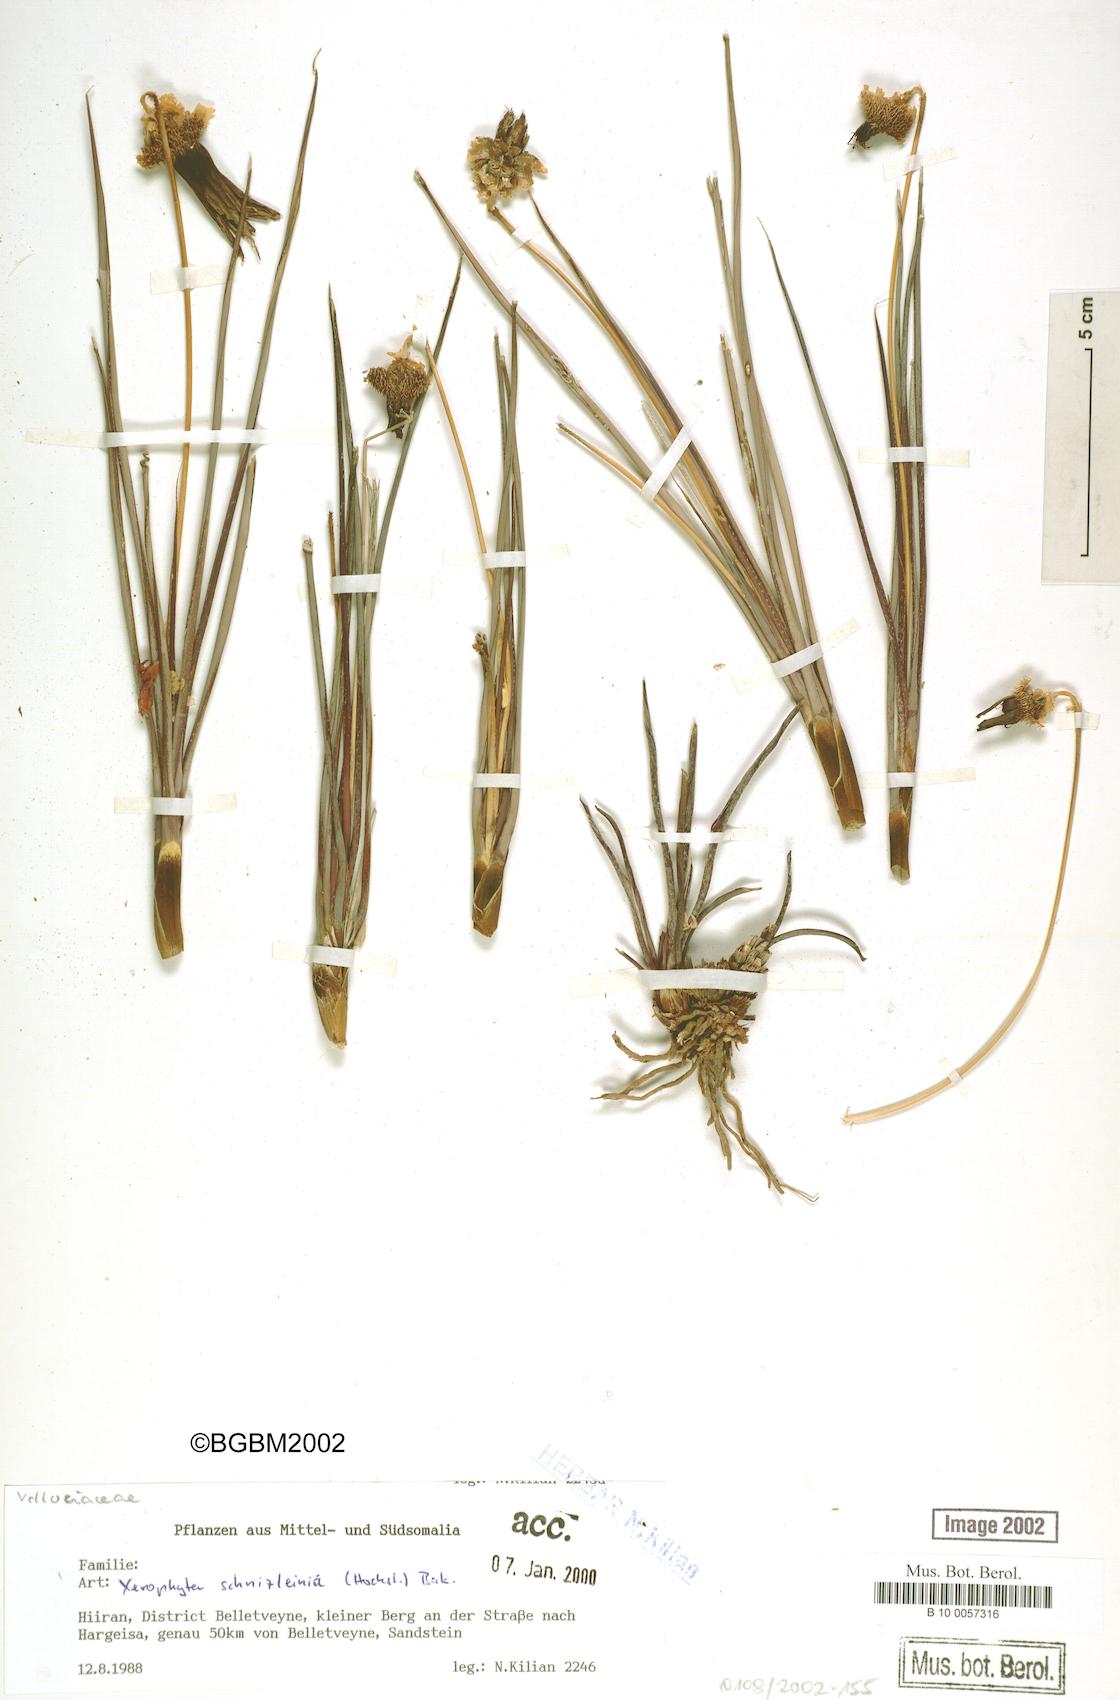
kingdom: Plantae
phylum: Tracheophyta
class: Liliopsida
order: Pandanales
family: Velloziaceae
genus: Xerophyta
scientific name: Xerophyta schnizleinia
